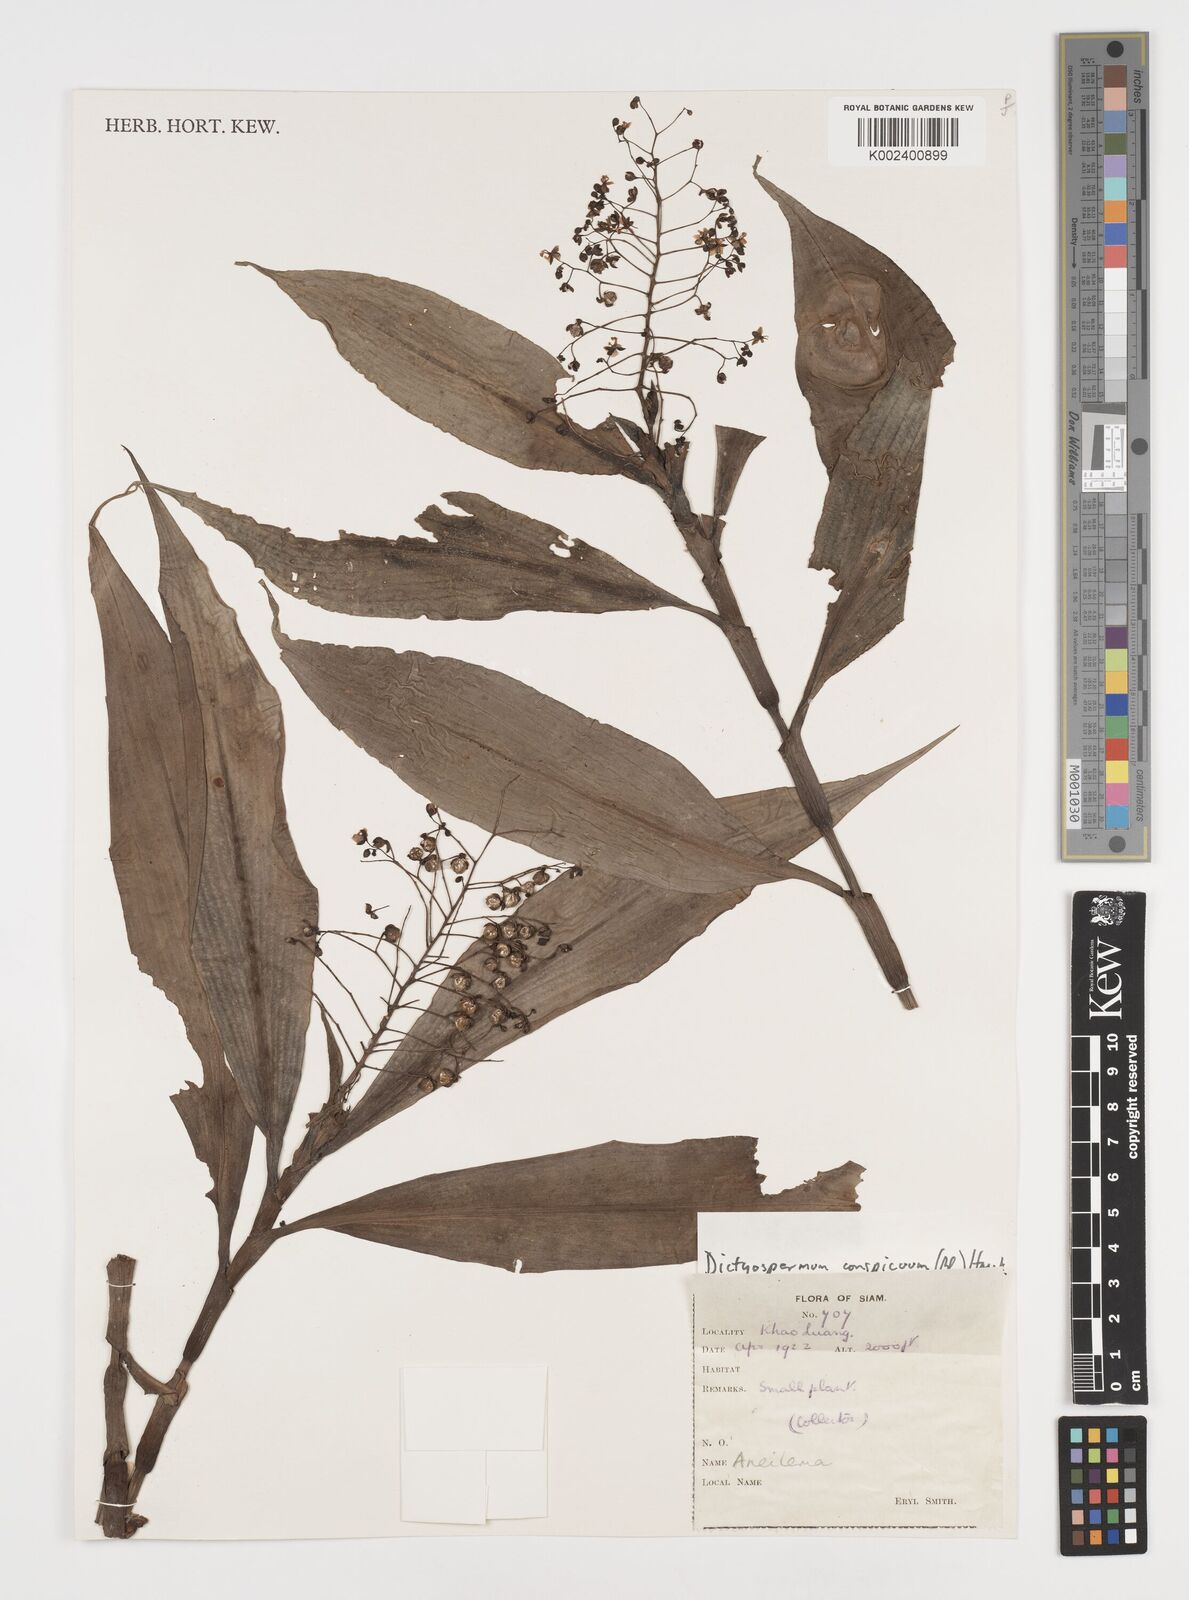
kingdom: Plantae
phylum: Tracheophyta
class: Liliopsida
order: Commelinales
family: Commelinaceae
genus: Dictyospermum
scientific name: Dictyospermum conspicuum
